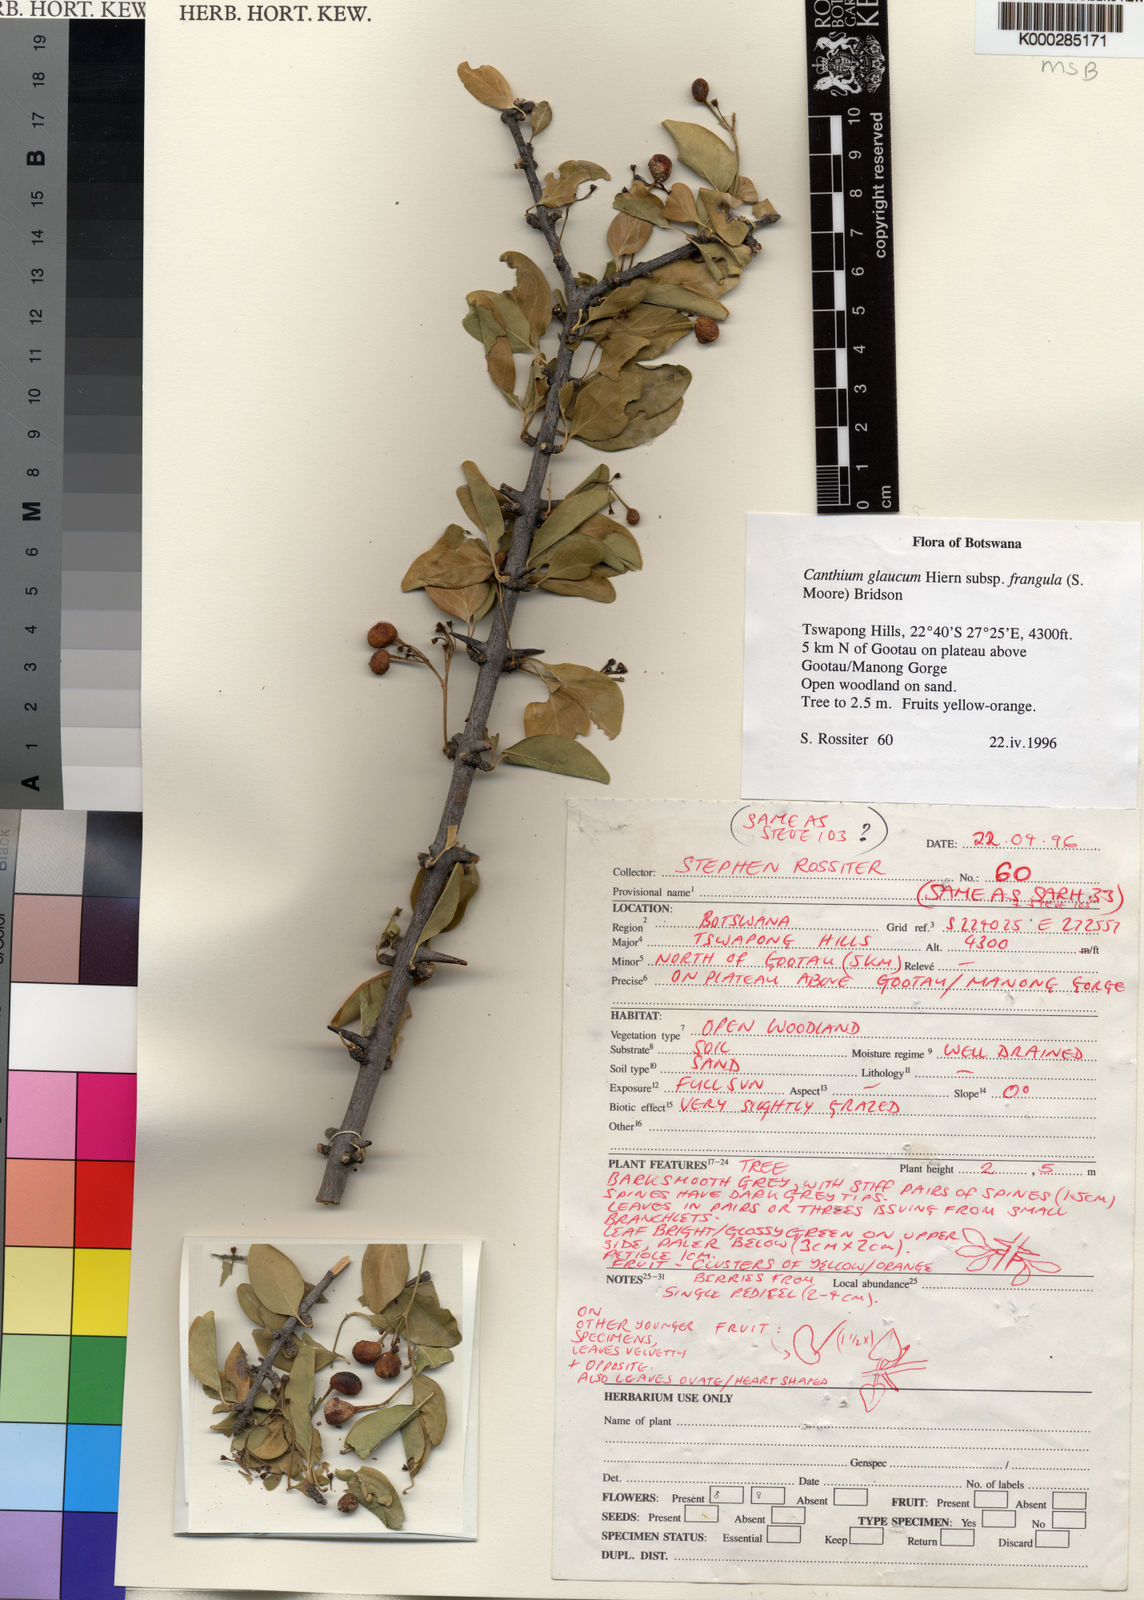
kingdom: Plantae
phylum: Tracheophyta
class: Magnoliopsida
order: Gentianales
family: Rubiaceae
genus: Canthium
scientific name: Canthium glaucum
